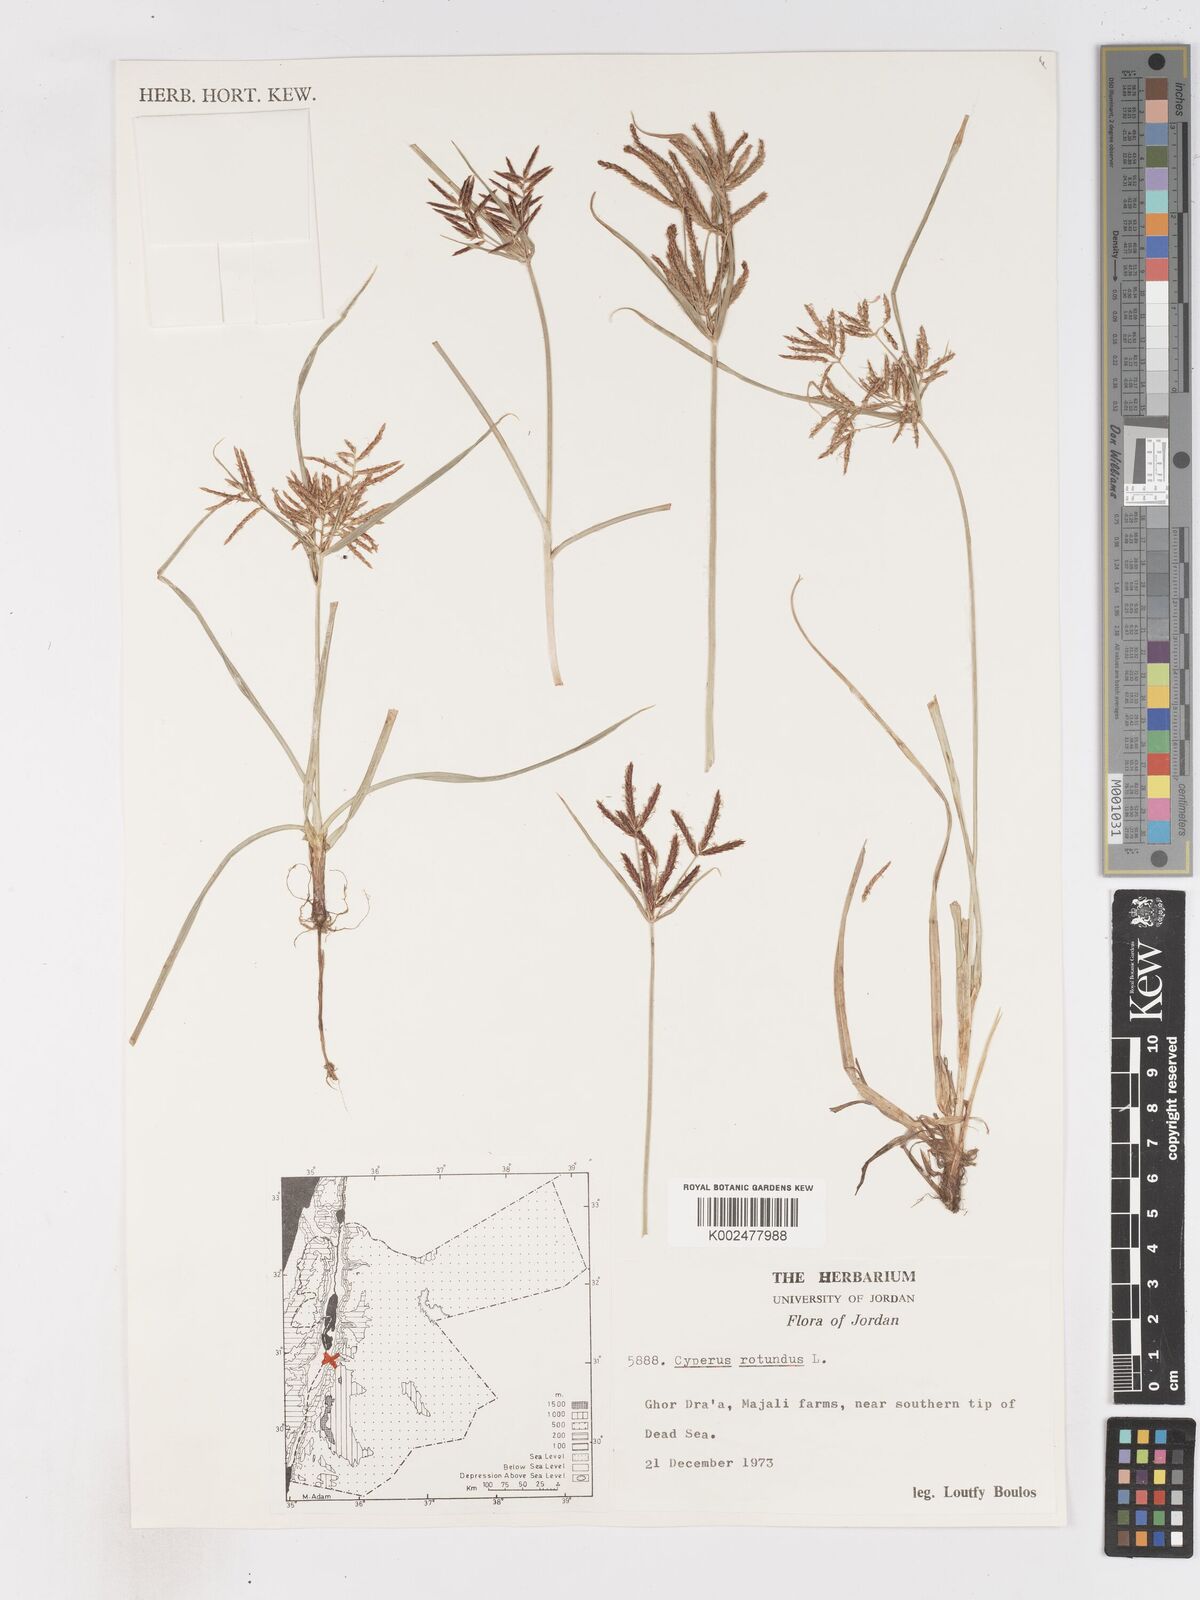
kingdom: Plantae
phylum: Tracheophyta
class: Liliopsida
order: Poales
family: Cyperaceae
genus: Cyperus
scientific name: Cyperus rotundus
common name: Nutgrass
